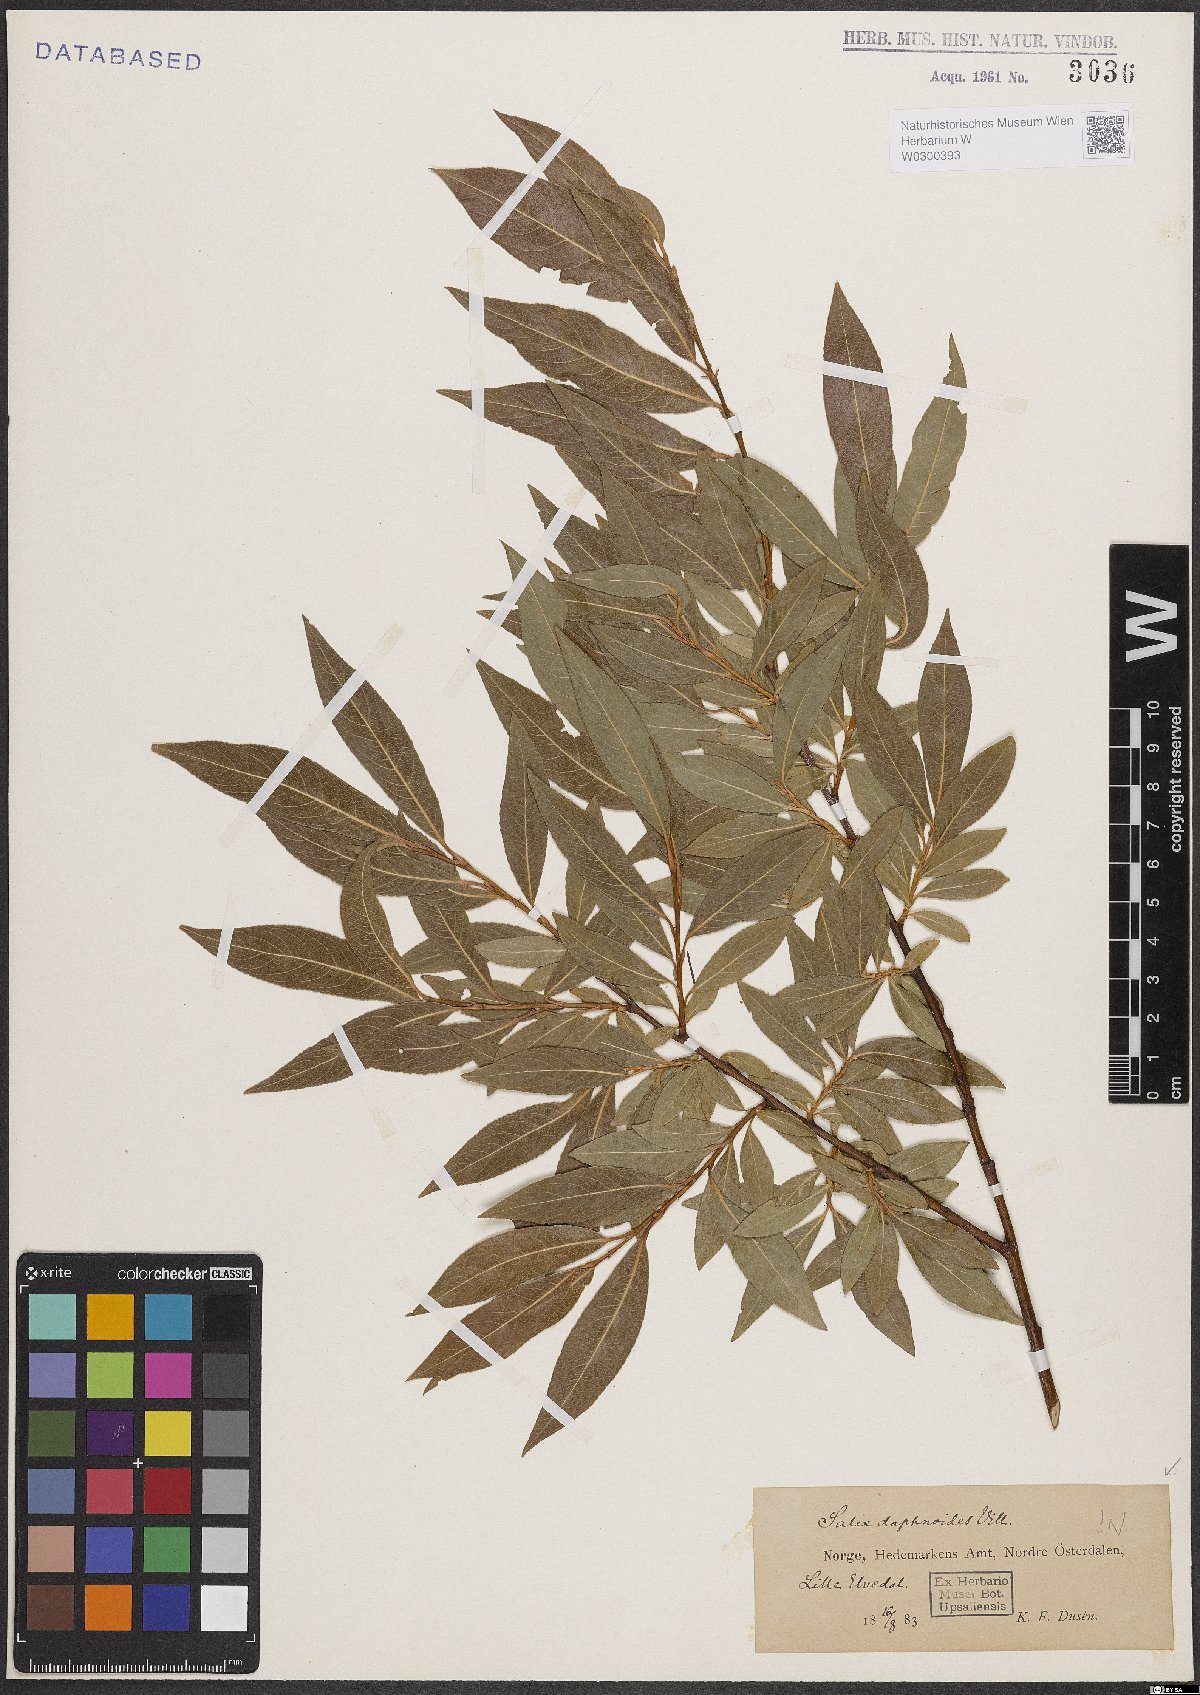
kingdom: Plantae
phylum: Tracheophyta
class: Magnoliopsida
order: Malpighiales
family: Salicaceae
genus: Salix
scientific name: Salix daphnoides
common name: European violet-willow
